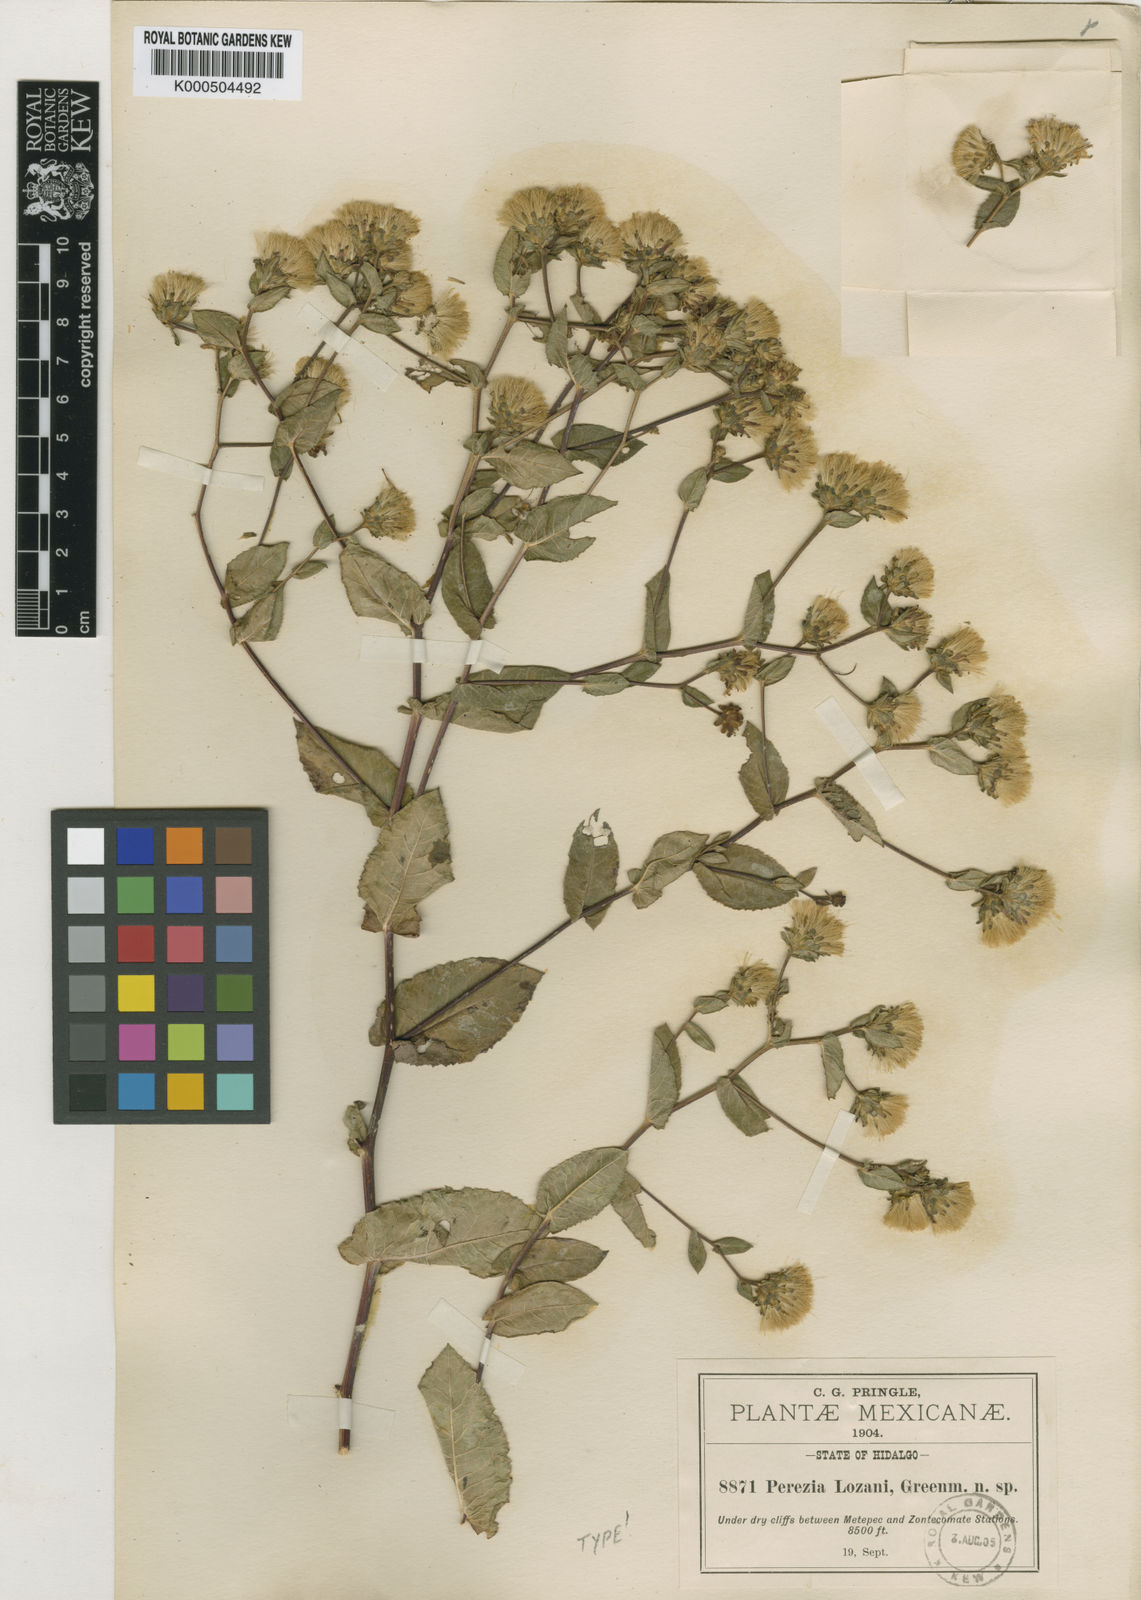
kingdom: Plantae
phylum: Tracheophyta
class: Magnoliopsida
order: Asterales
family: Asteraceae
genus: Acourtia
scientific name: Acourtia
